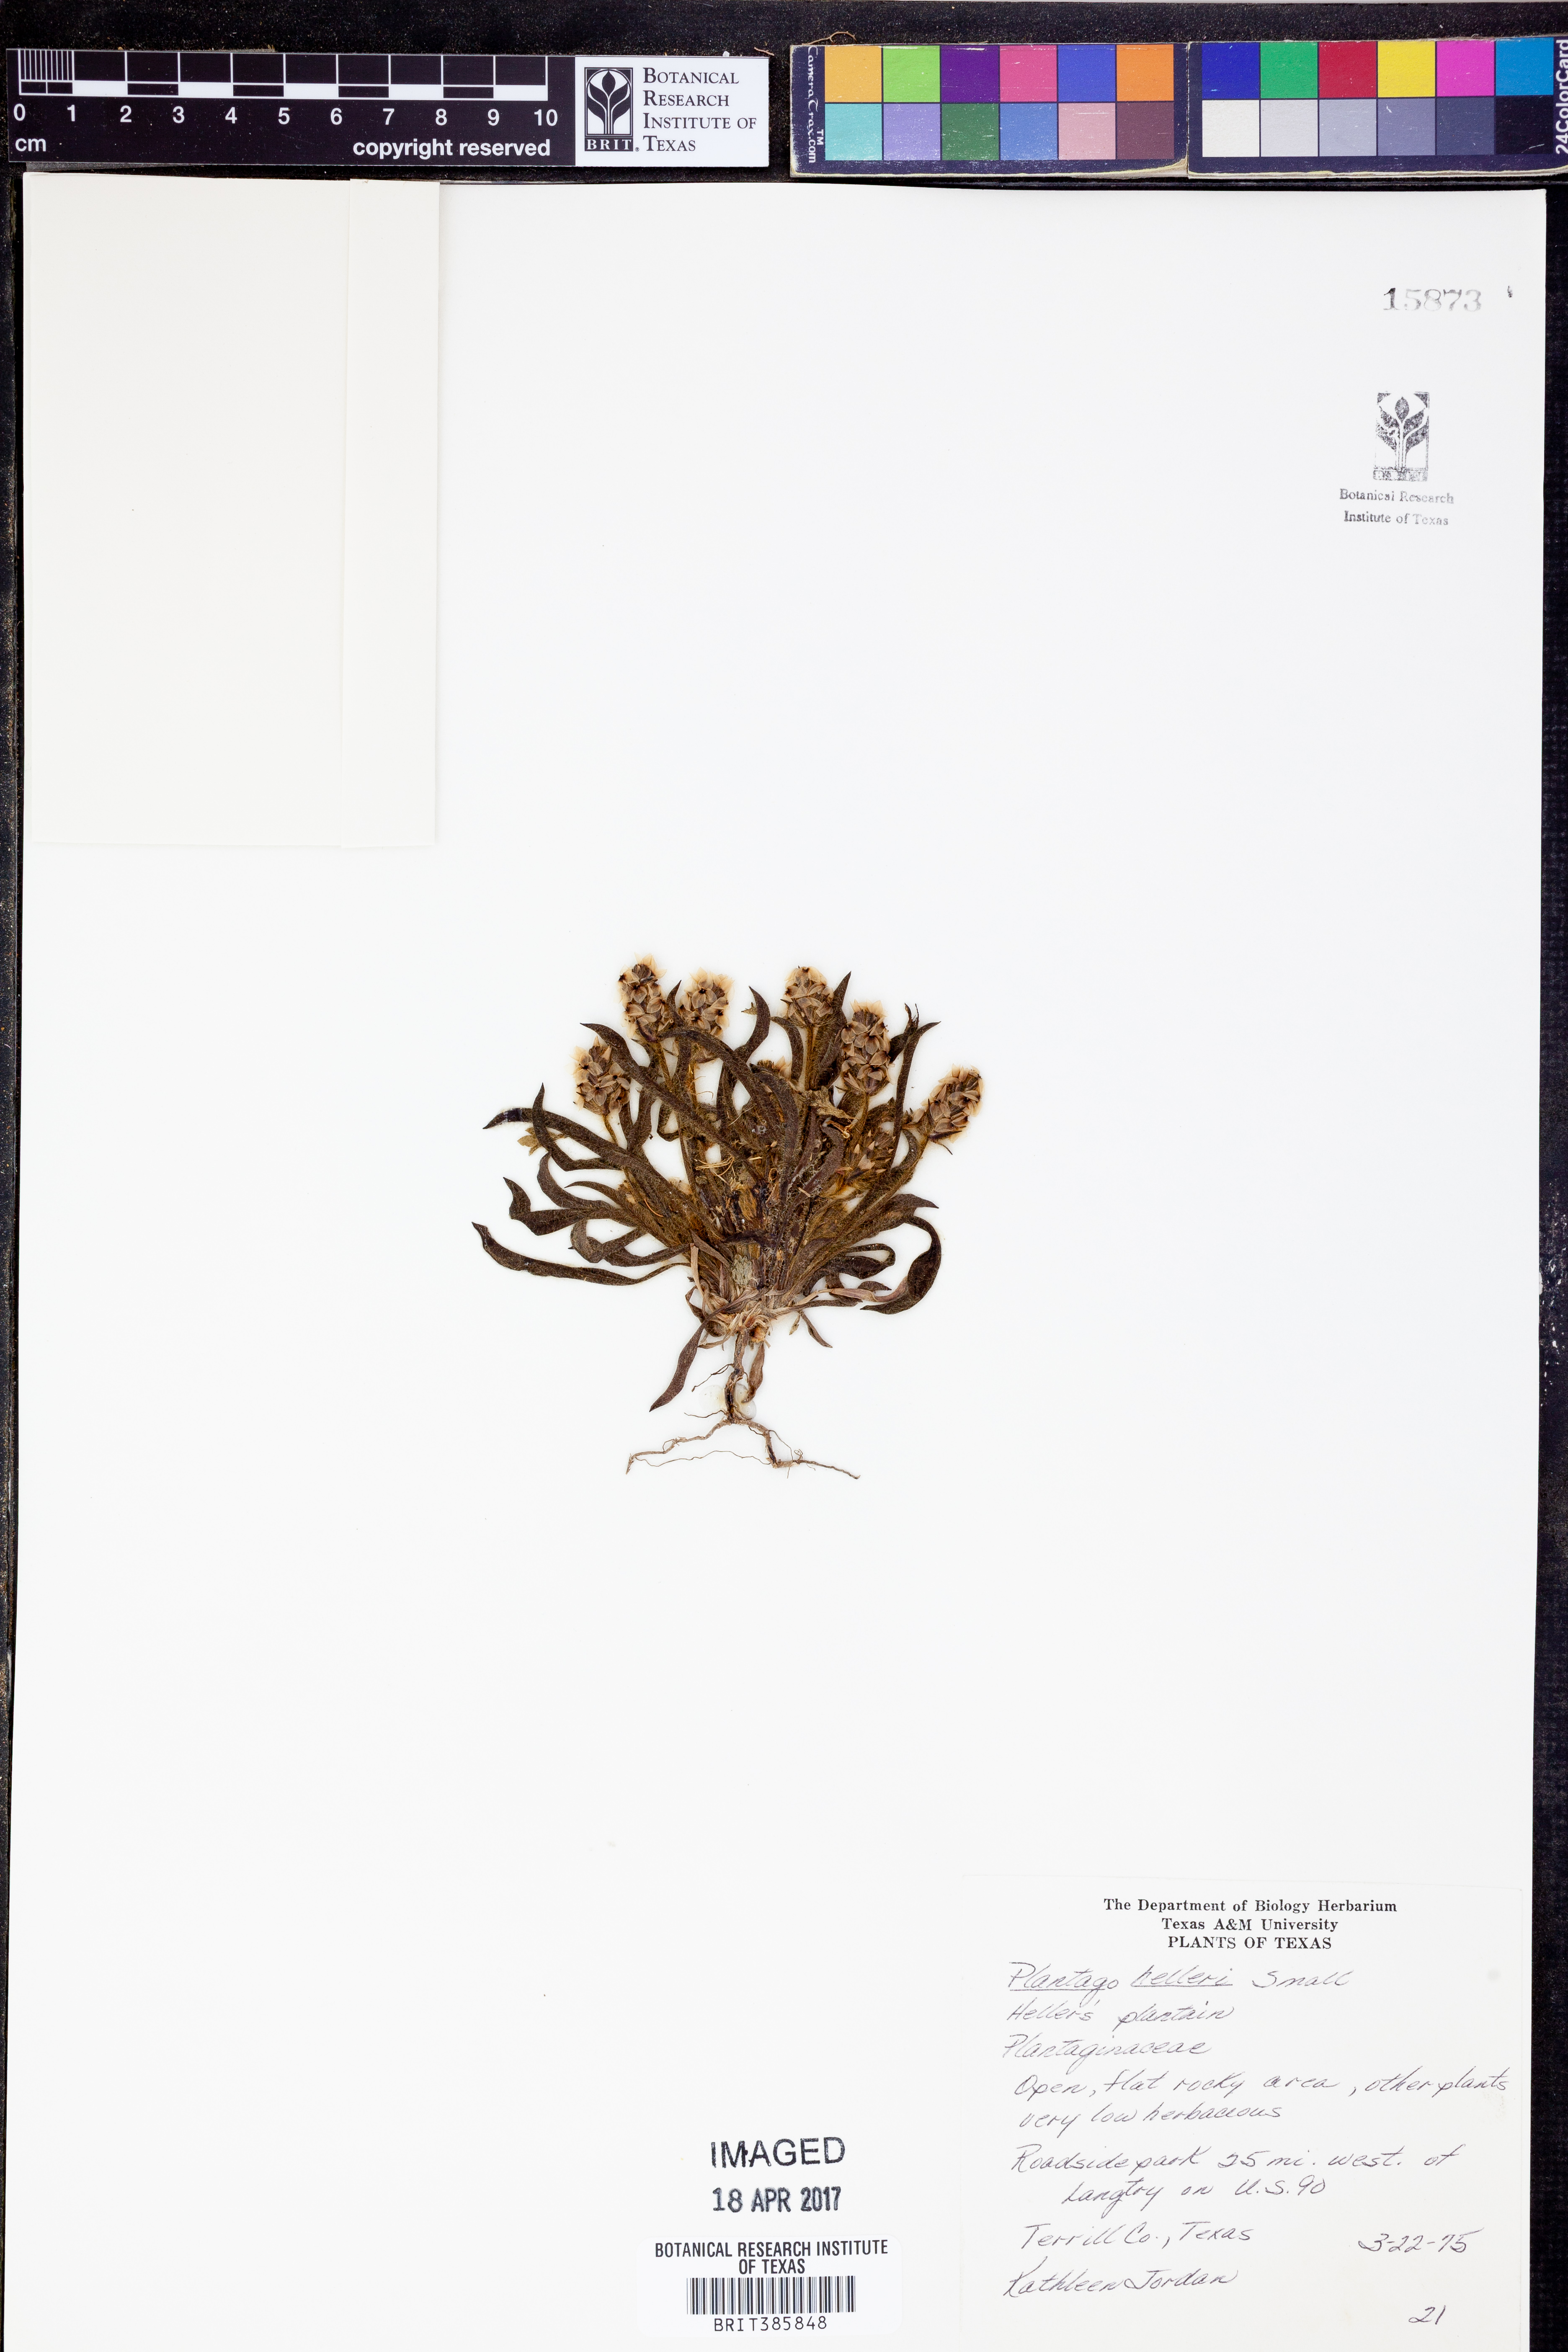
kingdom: Plantae
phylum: Tracheophyta
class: Magnoliopsida
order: Lamiales
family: Plantaginaceae
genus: Plantago
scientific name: Plantago helleri
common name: Heller's plantain
